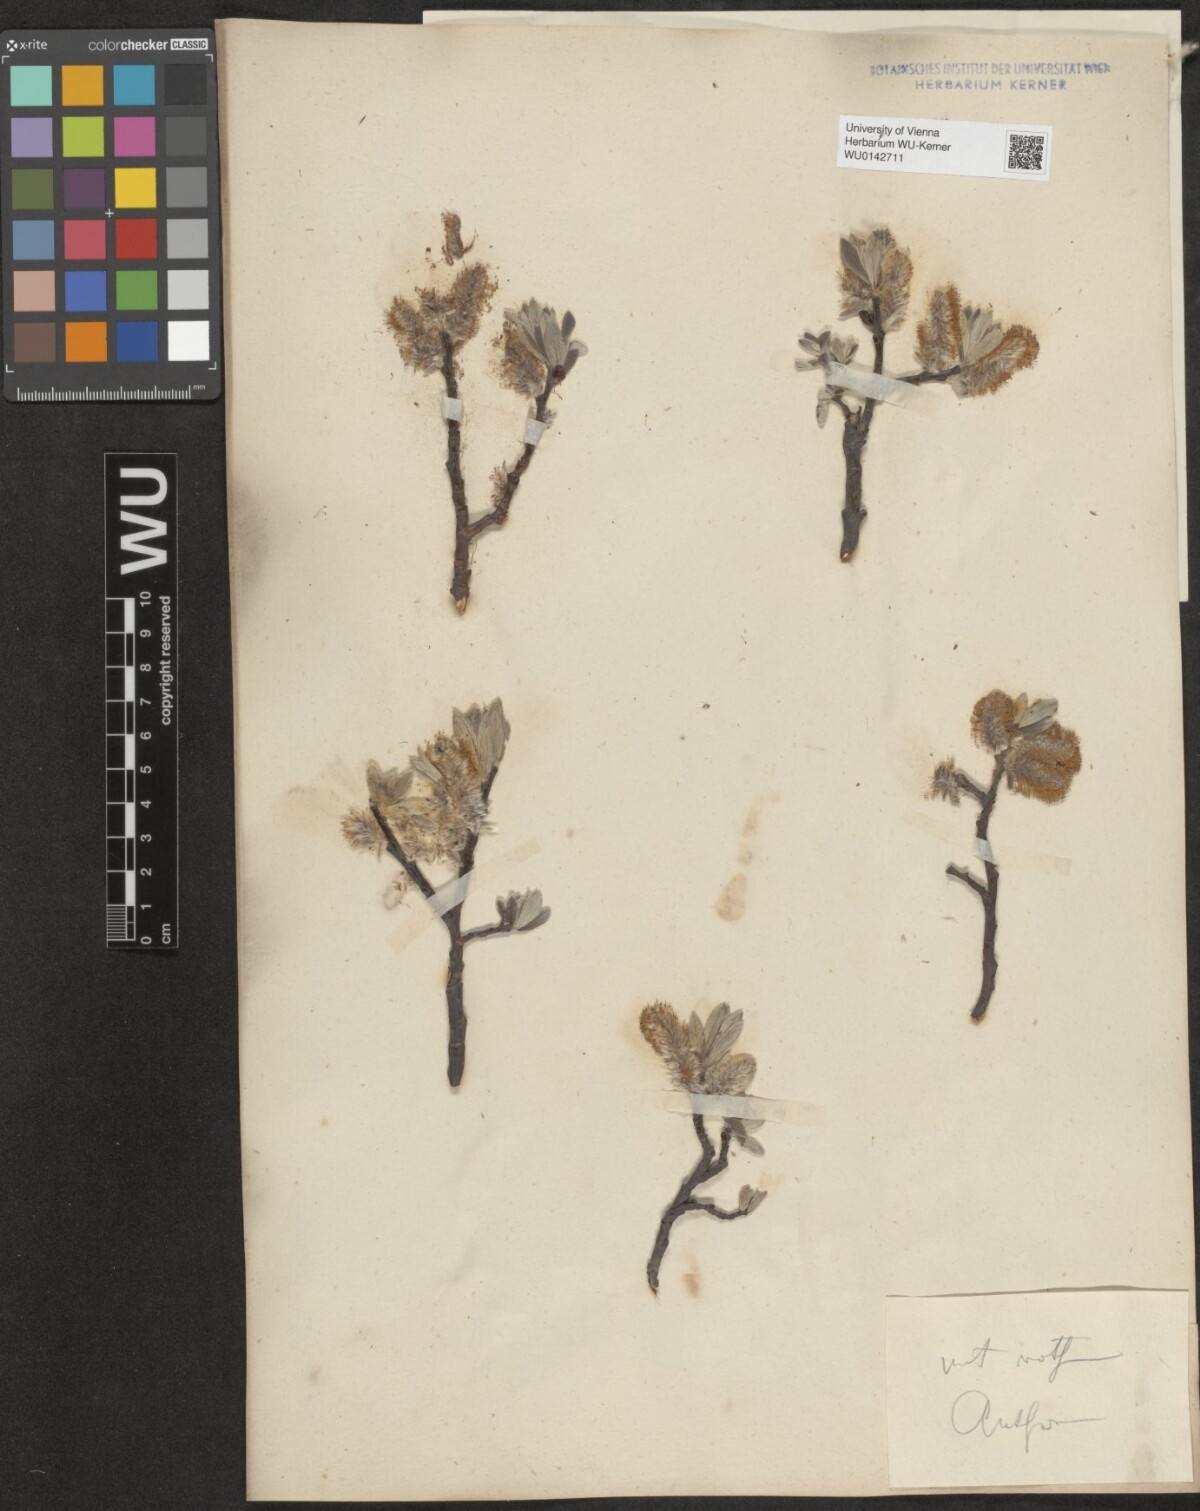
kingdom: Plantae
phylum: Tracheophyta
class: Magnoliopsida
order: Malpighiales
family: Salicaceae
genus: Salix
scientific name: Salix helvetica
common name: Swiss willow
